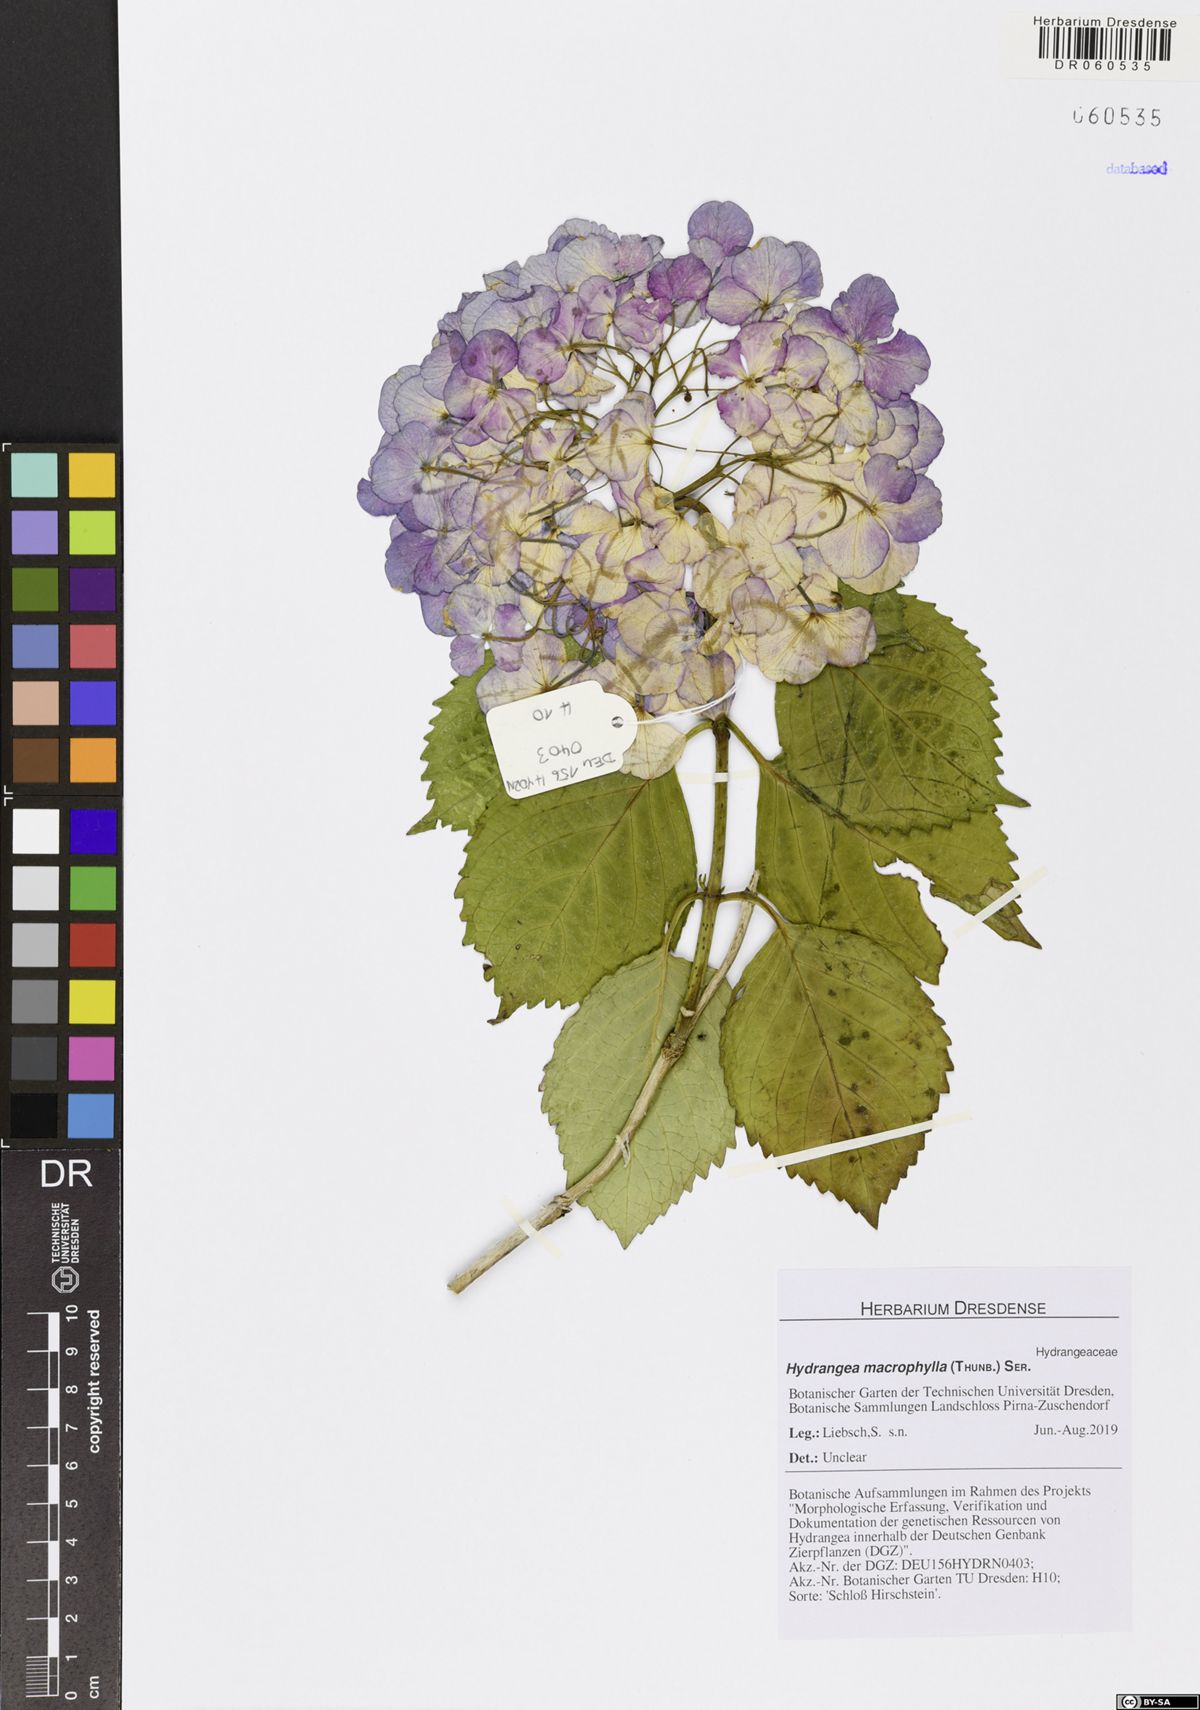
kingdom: Plantae
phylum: Tracheophyta
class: Magnoliopsida
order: Cornales
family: Hydrangeaceae
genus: Hydrangea
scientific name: Hydrangea macrophylla
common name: Hydrangea
